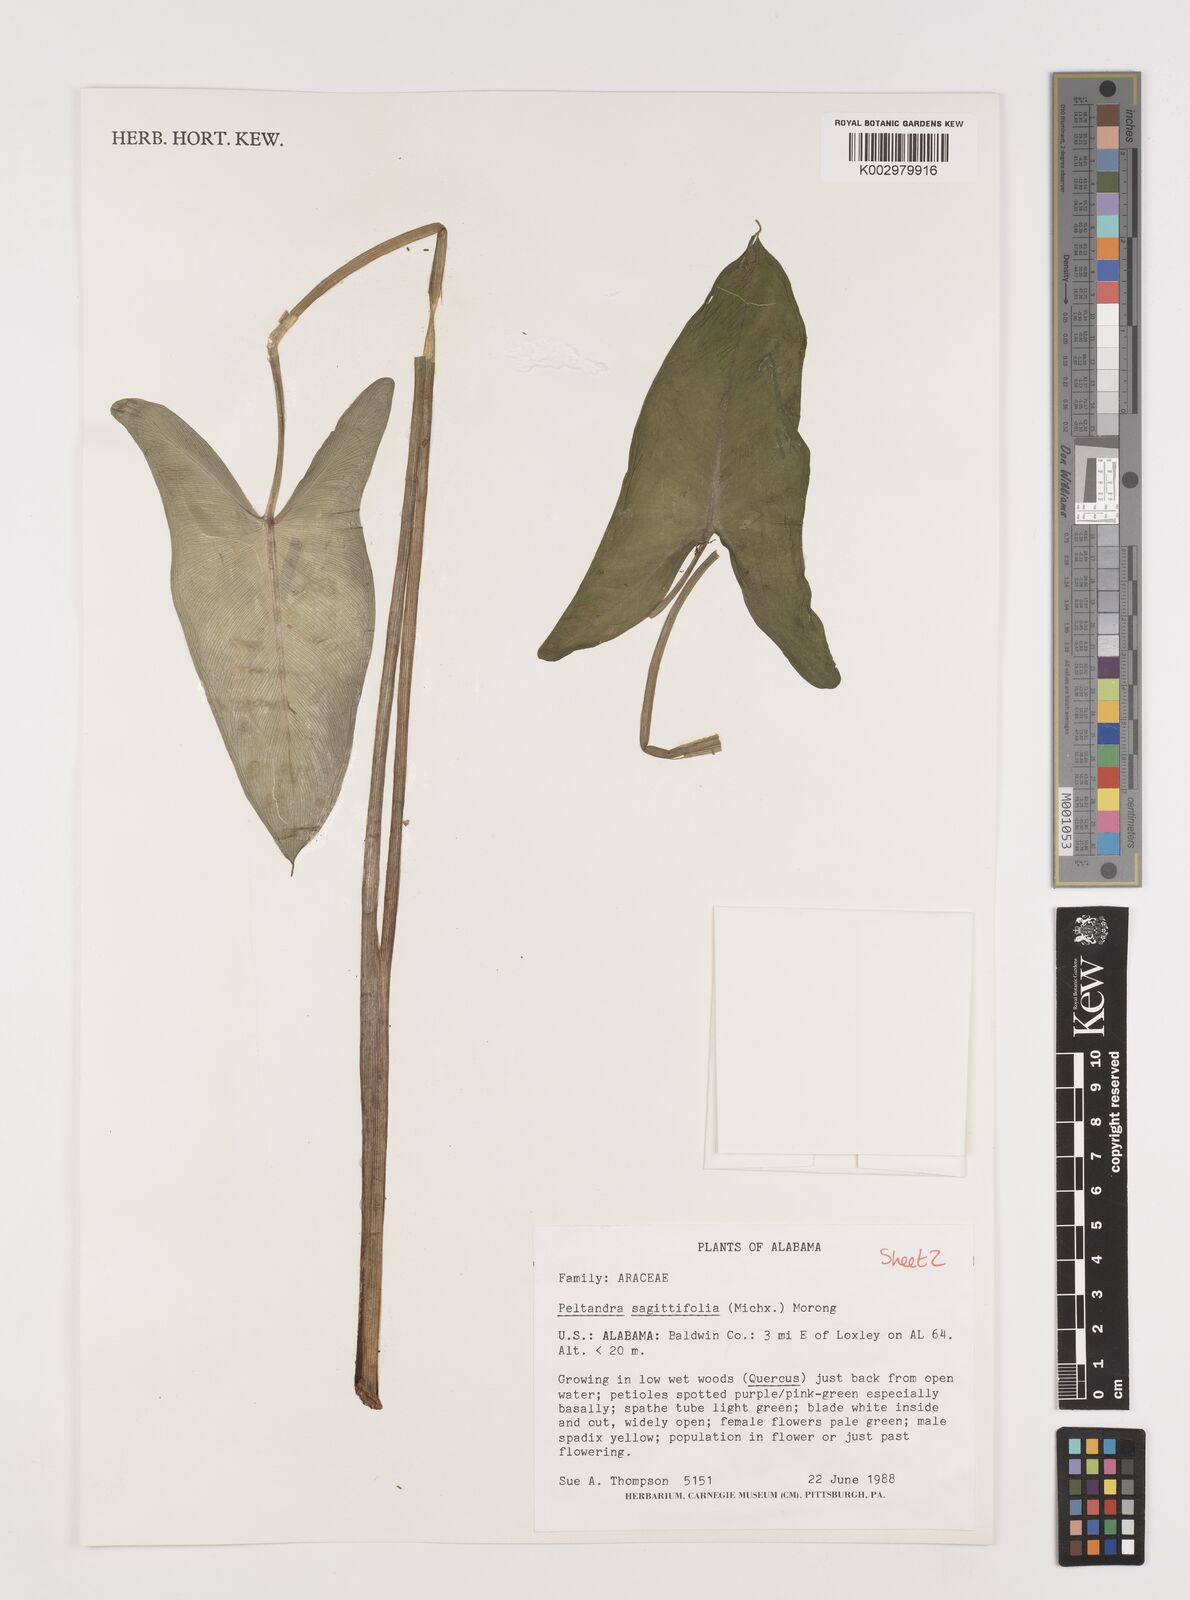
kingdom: Plantae
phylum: Tracheophyta
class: Liliopsida
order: Alismatales
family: Araceae
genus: Peltandra
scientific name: Peltandra sagittifolia
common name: White arrow arum
